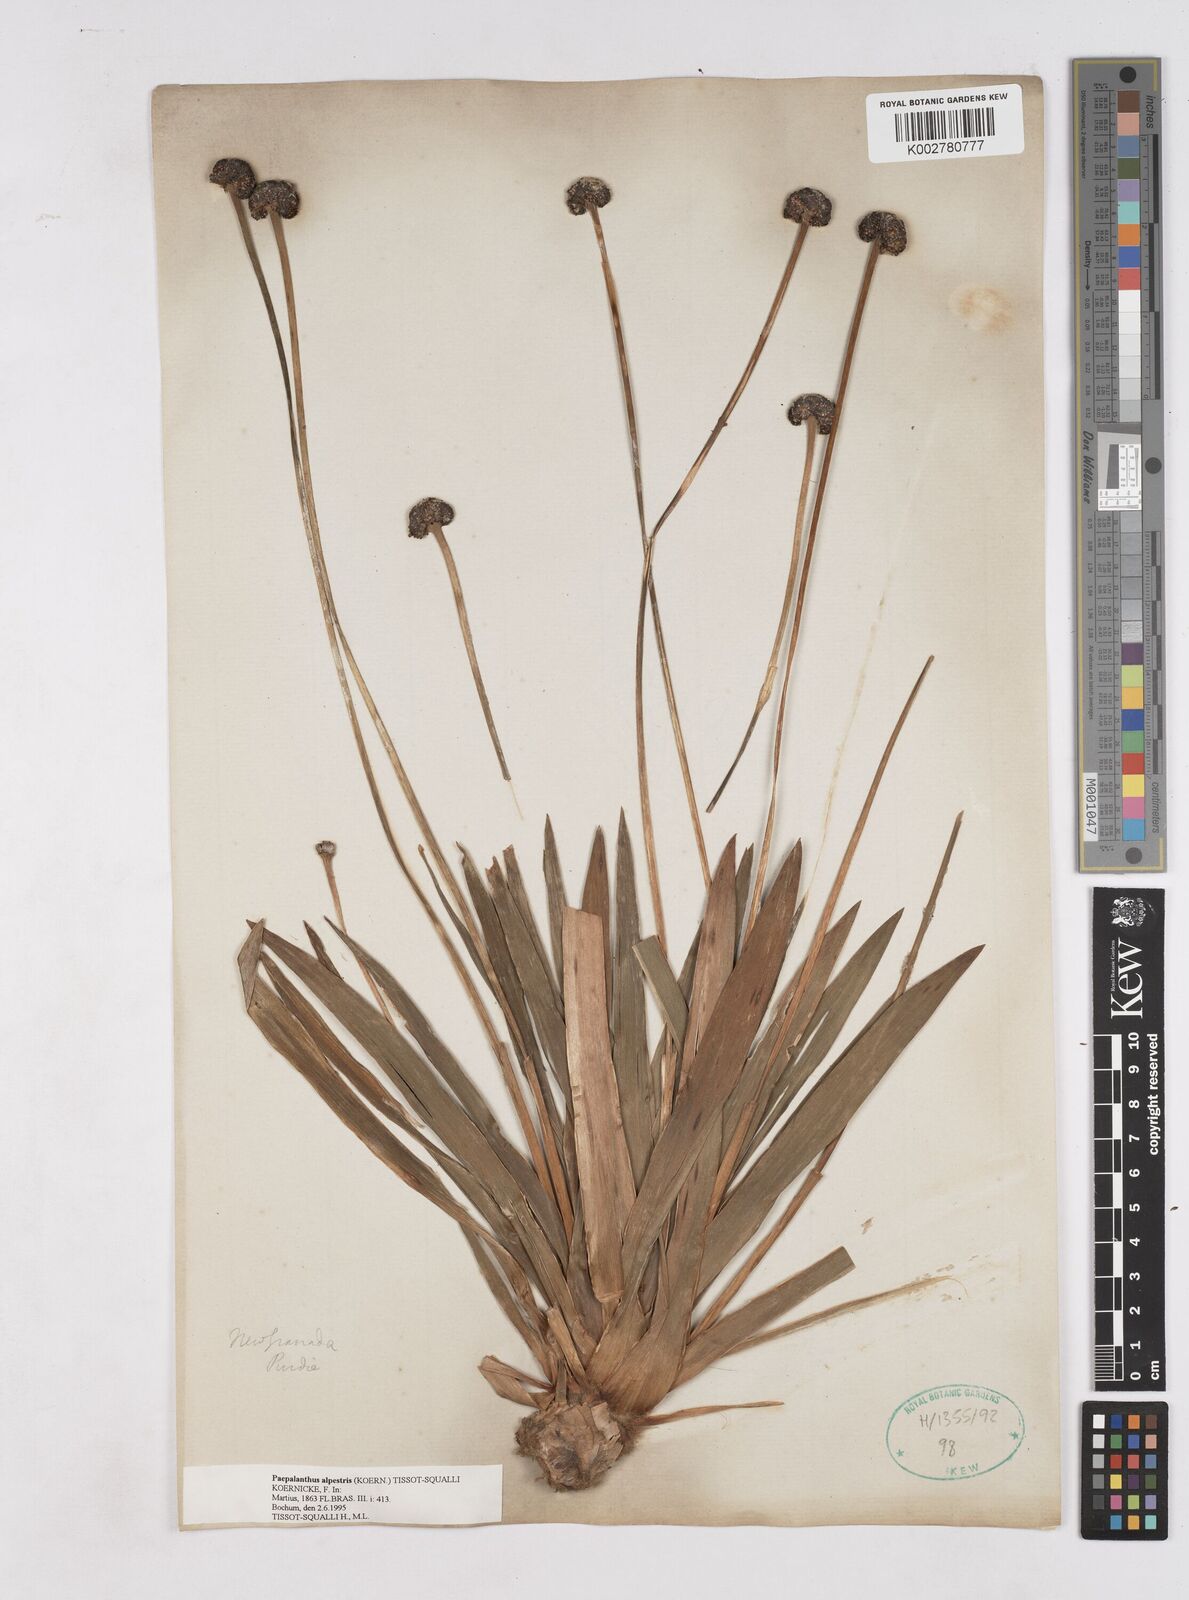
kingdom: Plantae
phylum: Tracheophyta
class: Liliopsida
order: Poales
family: Eriocaulaceae
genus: Paepalanthus
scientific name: Paepalanthus alpestris
